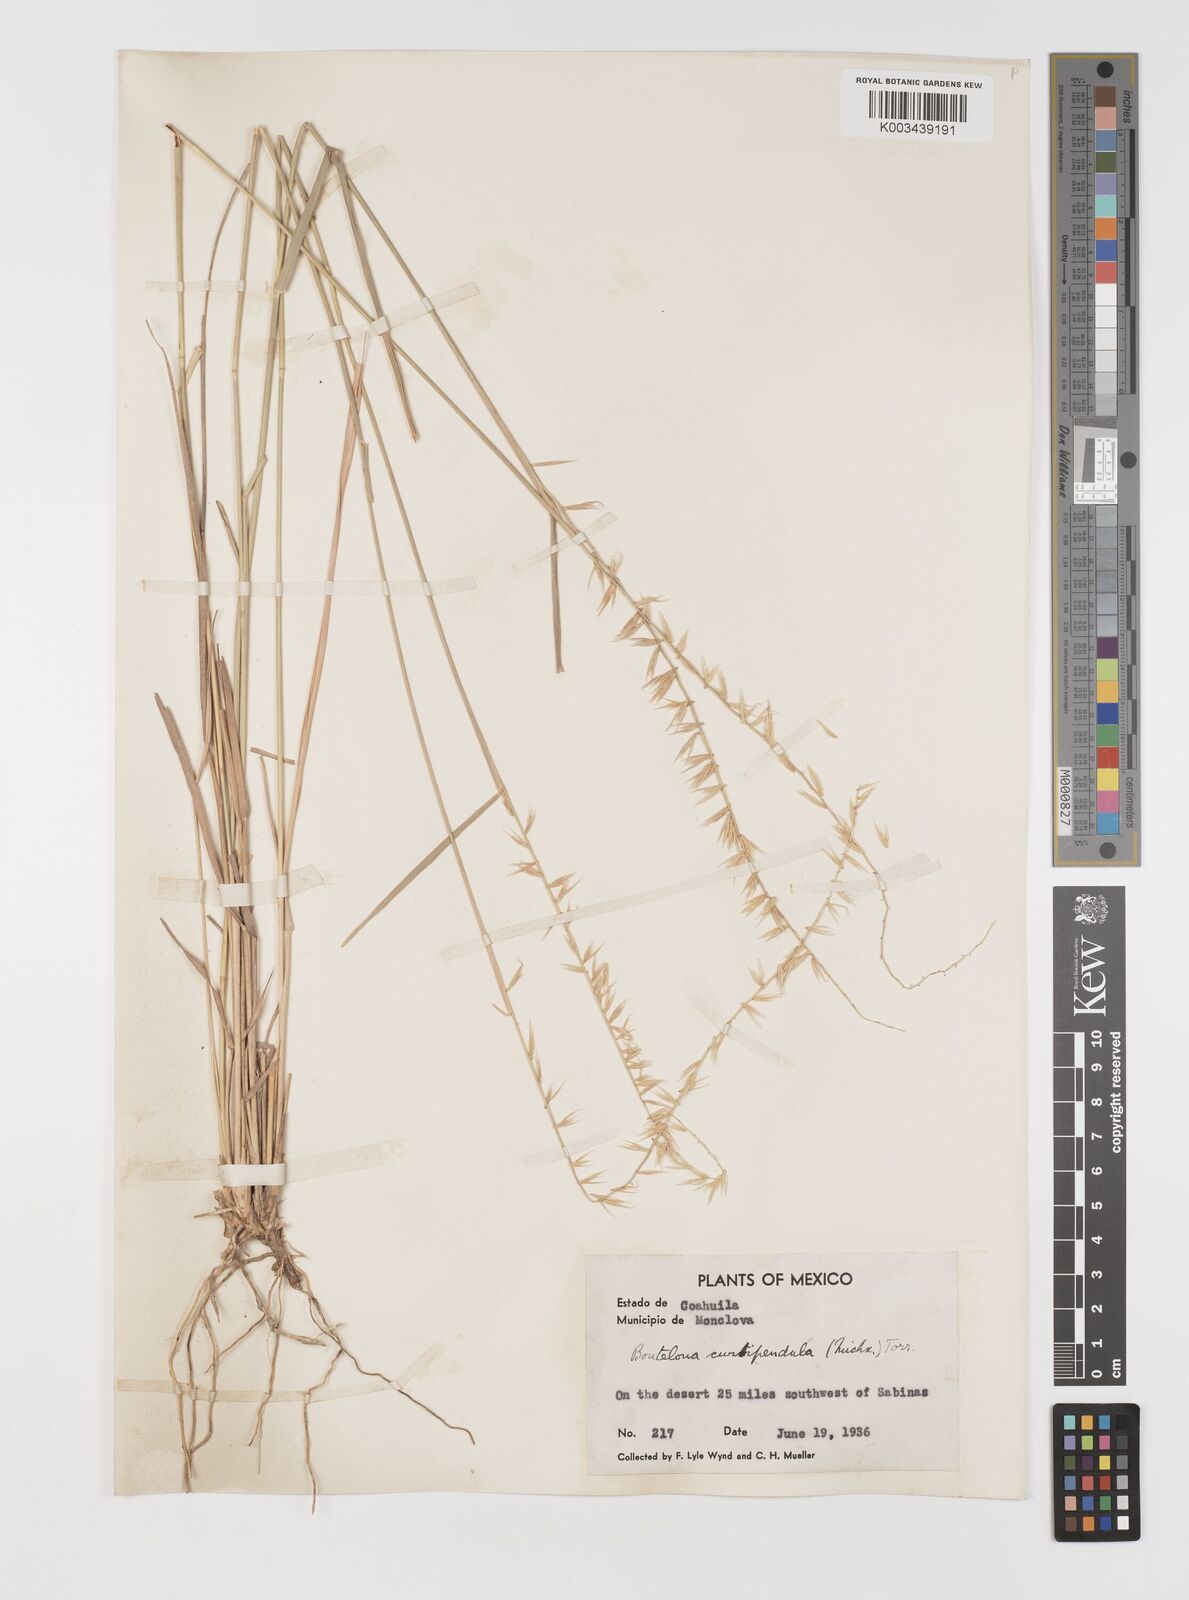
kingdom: Plantae
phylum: Tracheophyta
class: Liliopsida
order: Poales
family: Poaceae
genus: Bouteloua
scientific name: Bouteloua curtipendula
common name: Side-oats grama
